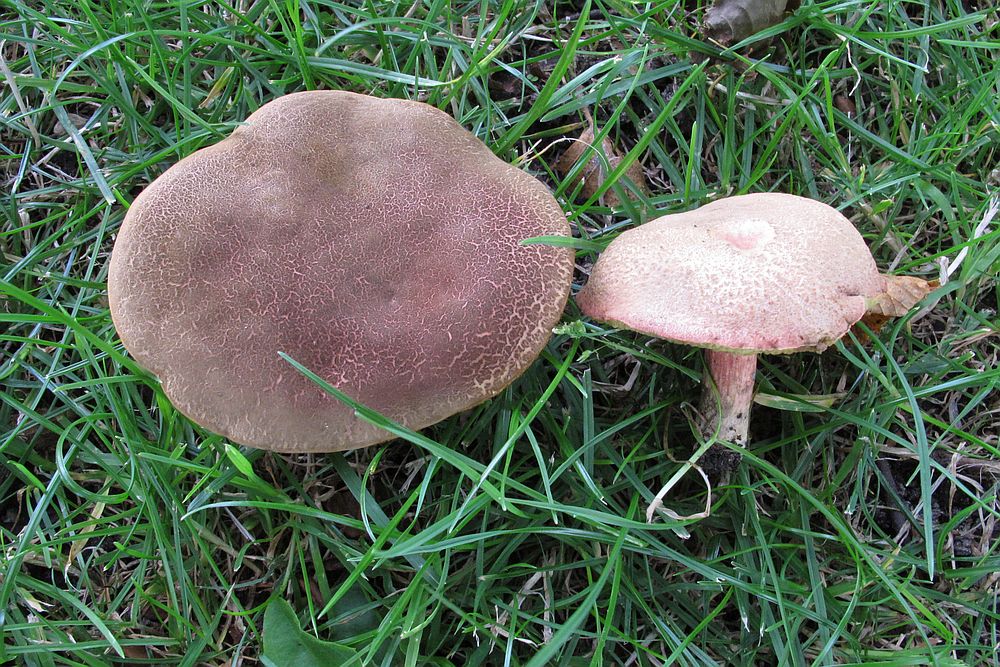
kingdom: Fungi
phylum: Basidiomycota
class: Agaricomycetes
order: Boletales
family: Boletaceae
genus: Xerocomellus
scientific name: Xerocomellus chrysenteron
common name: rødsprukken rørhat
